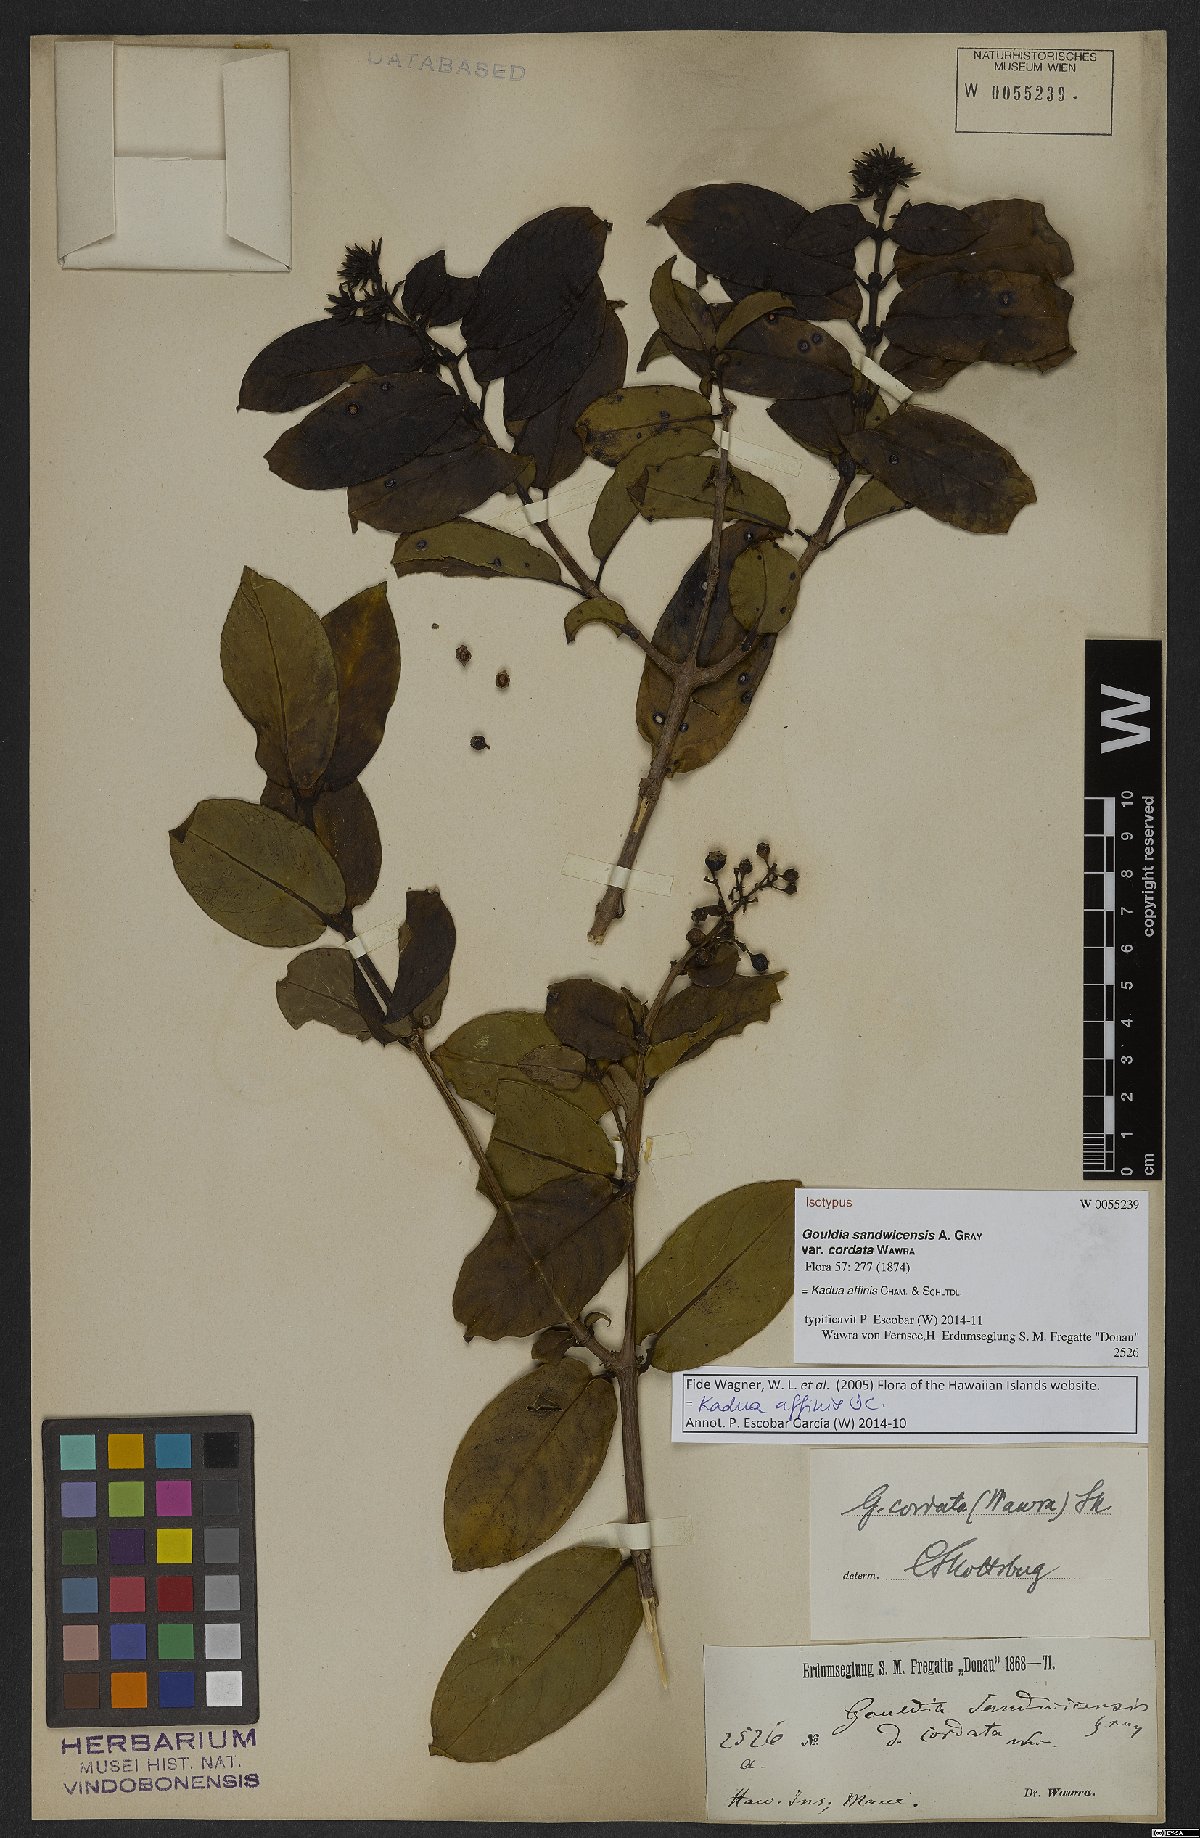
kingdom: Plantae
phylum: Tracheophyta
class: Magnoliopsida
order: Gentianales
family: Rubiaceae
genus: Kadua
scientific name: Kadua affinis
